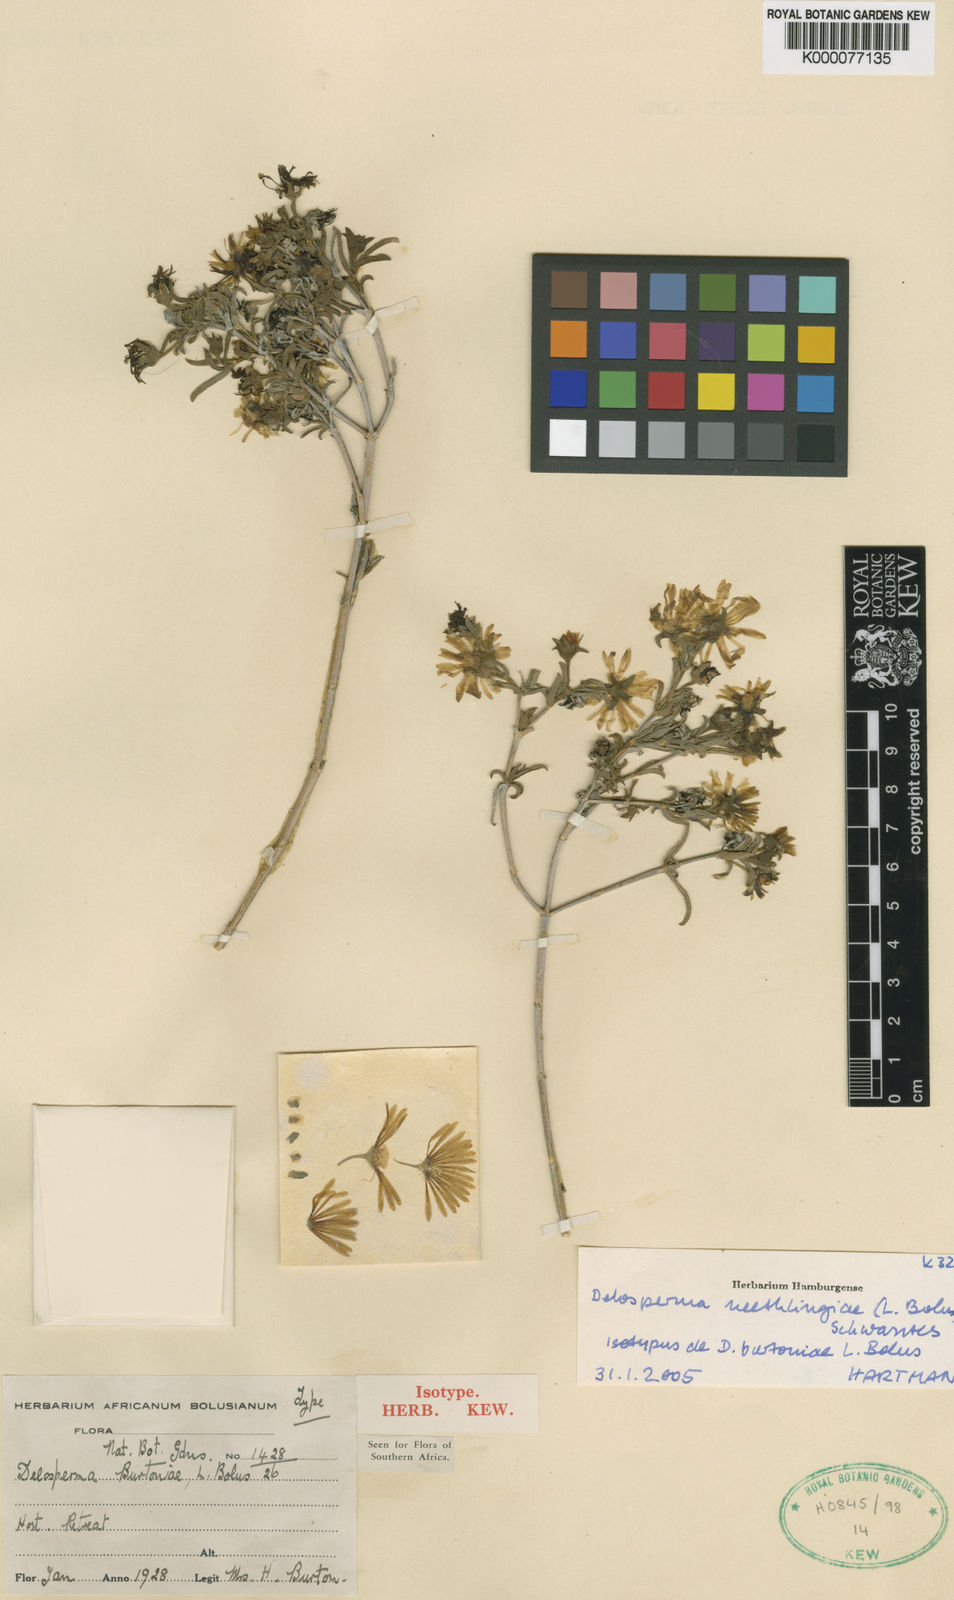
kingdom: Plantae
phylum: Tracheophyta
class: Magnoliopsida
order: Caryophyllales
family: Aizoaceae
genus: Delosperma
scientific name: Delosperma neethlingiae
